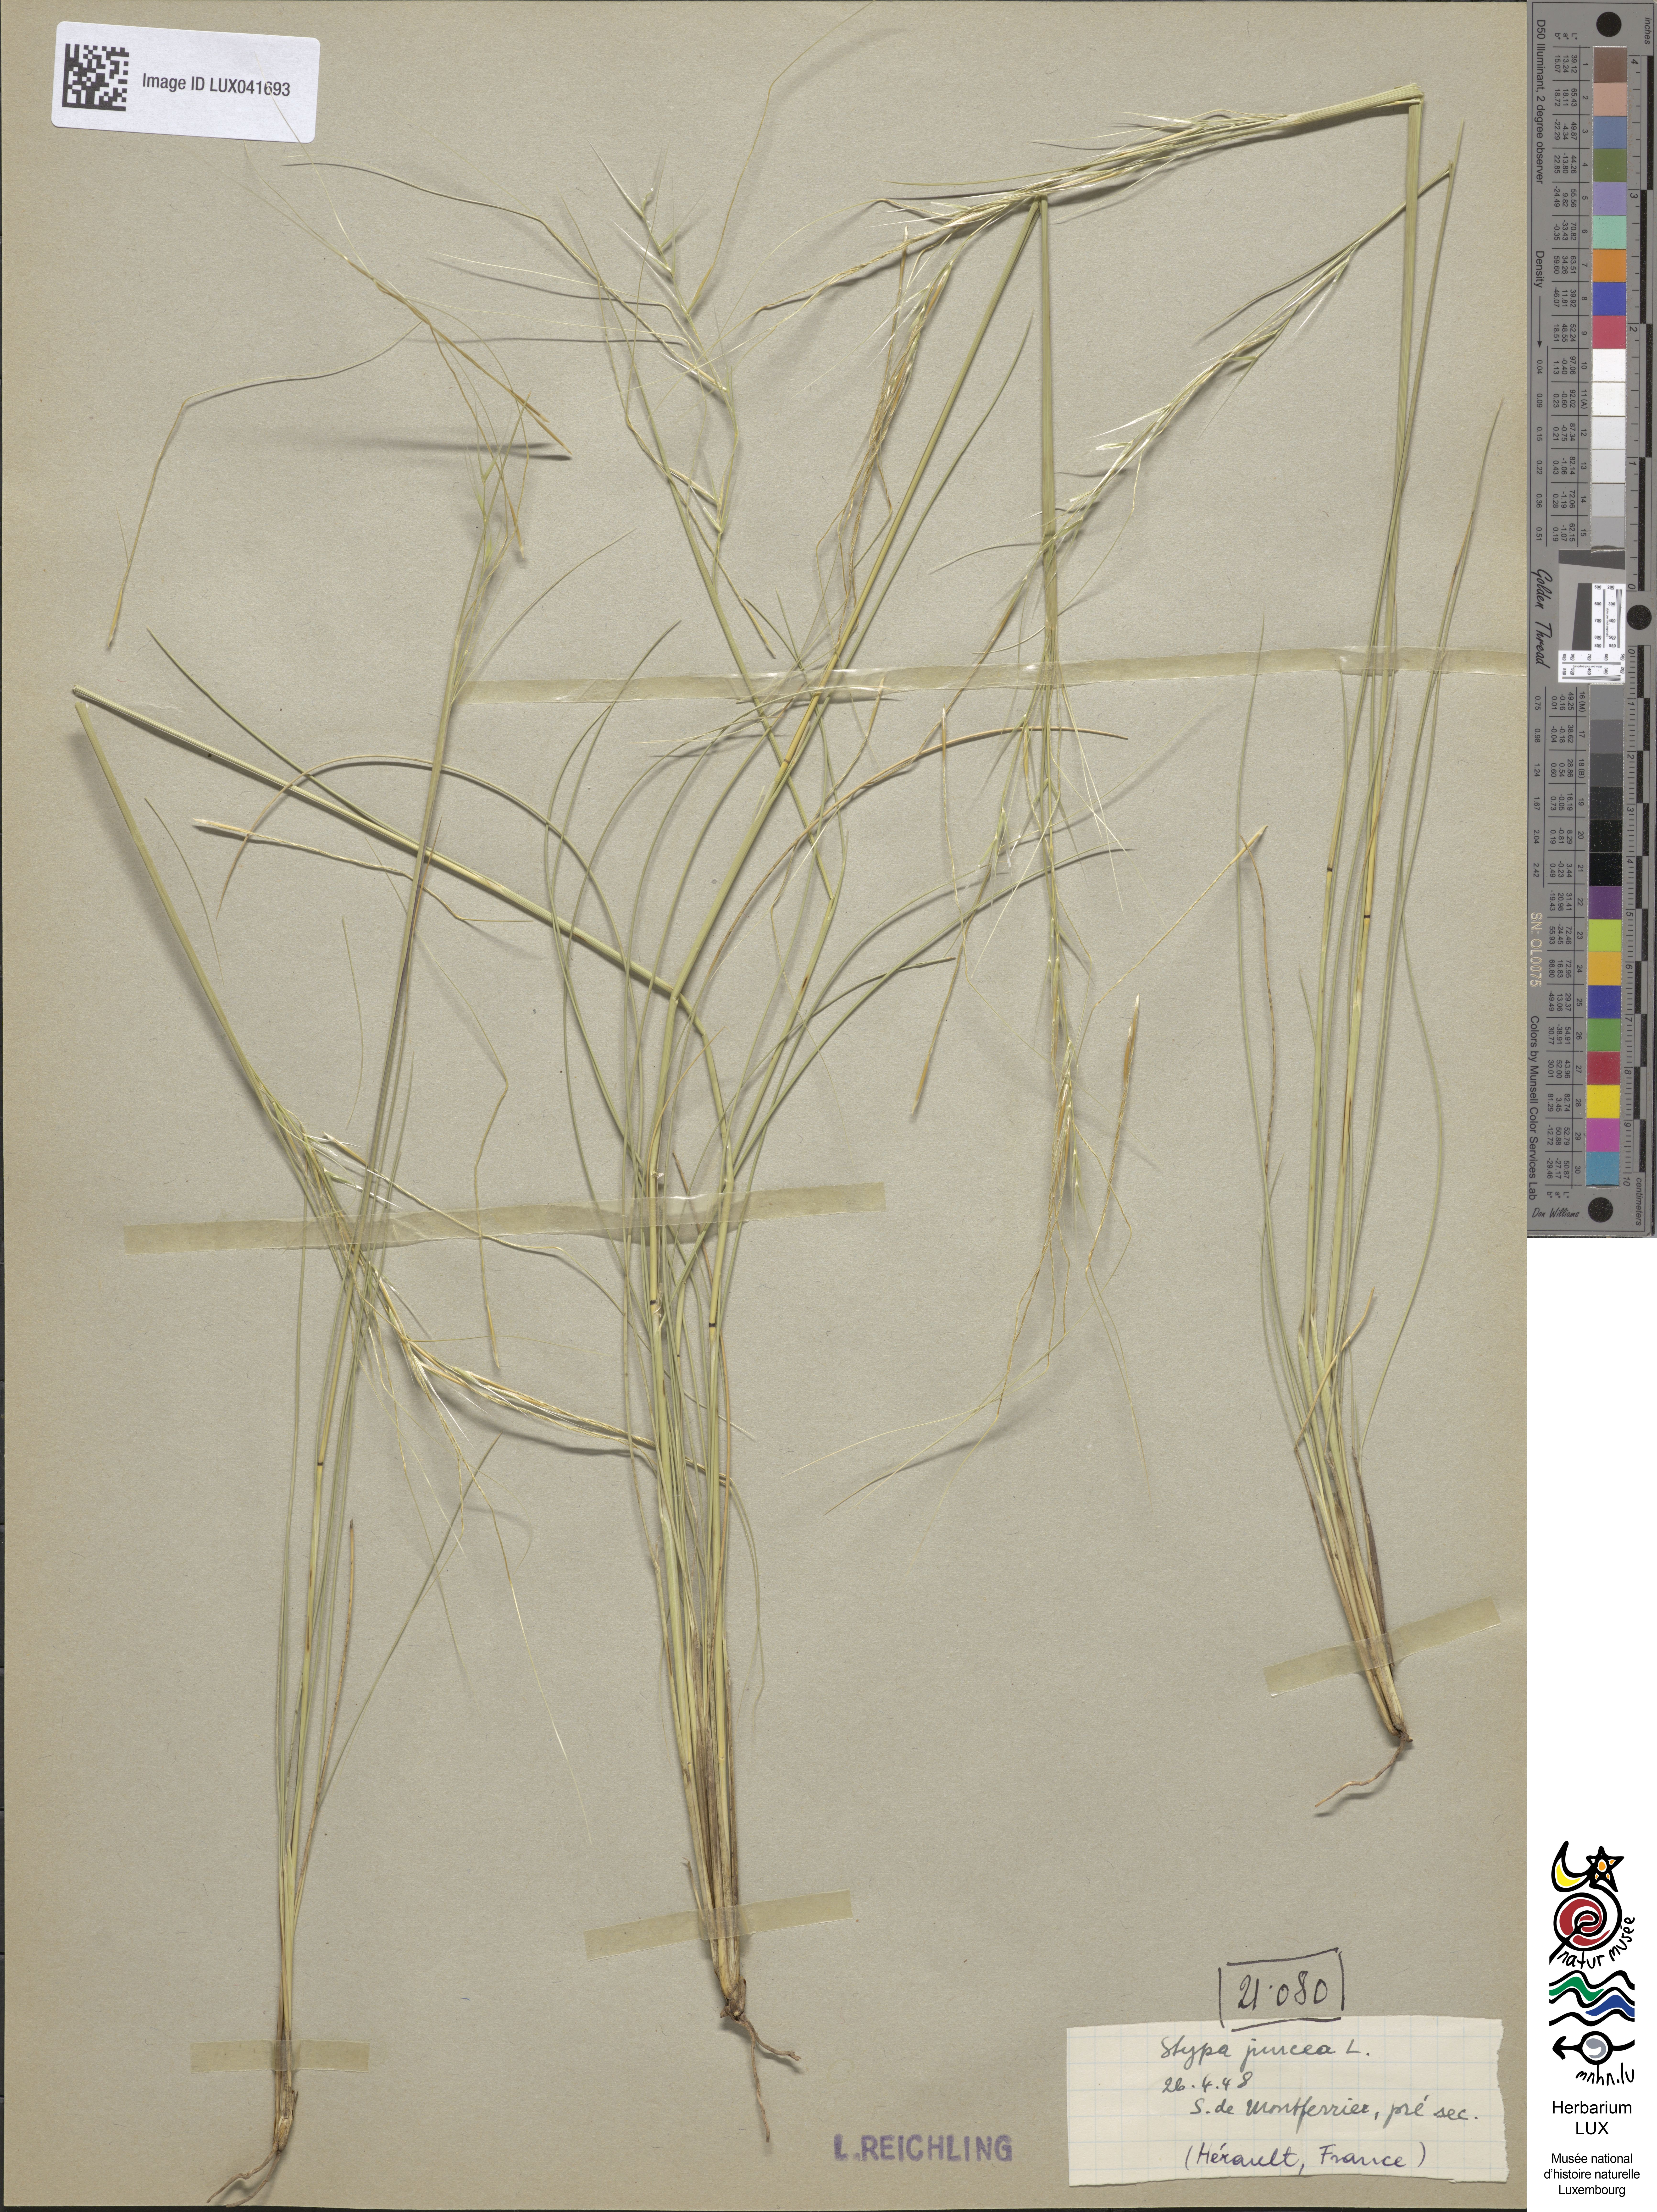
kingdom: Plantae
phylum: Tracheophyta
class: Liliopsida
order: Poales
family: Poaceae
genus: Stipa
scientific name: Stipa juncea
